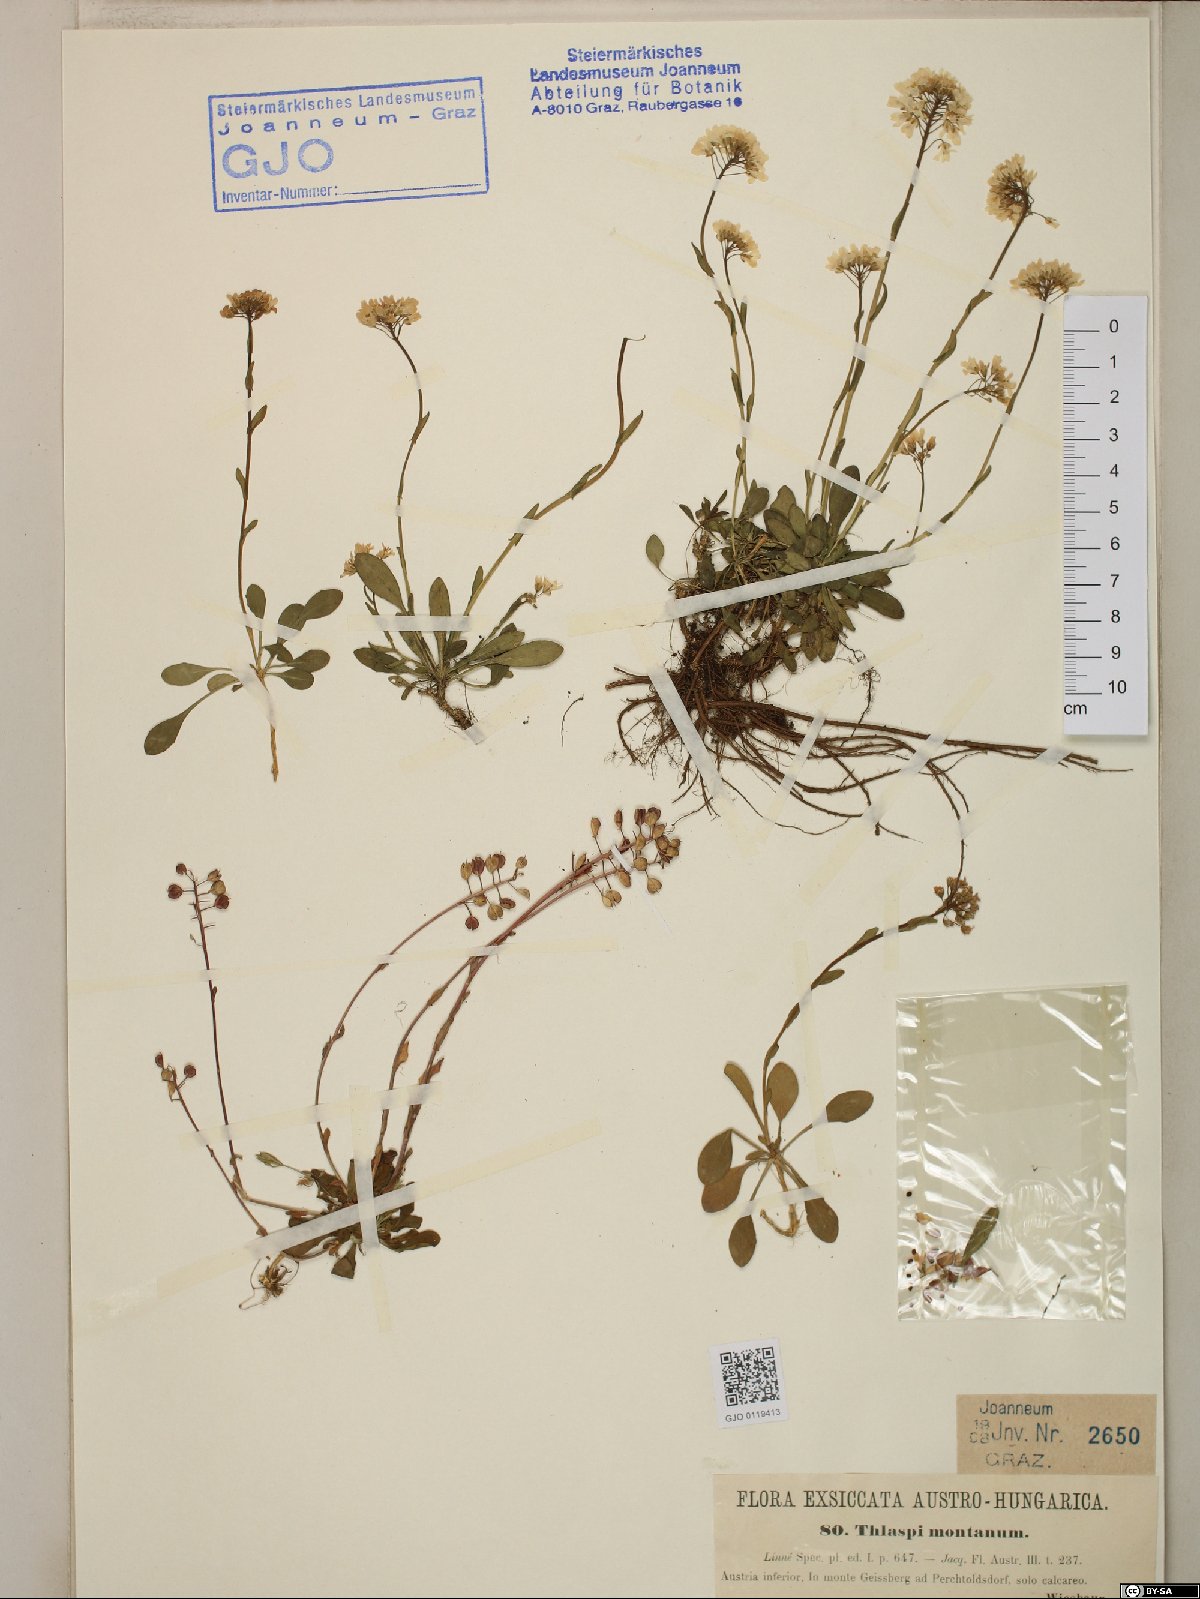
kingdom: Plantae
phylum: Tracheophyta
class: Magnoliopsida
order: Brassicales
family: Brassicaceae
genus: Noccaea
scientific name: Noccaea montana
